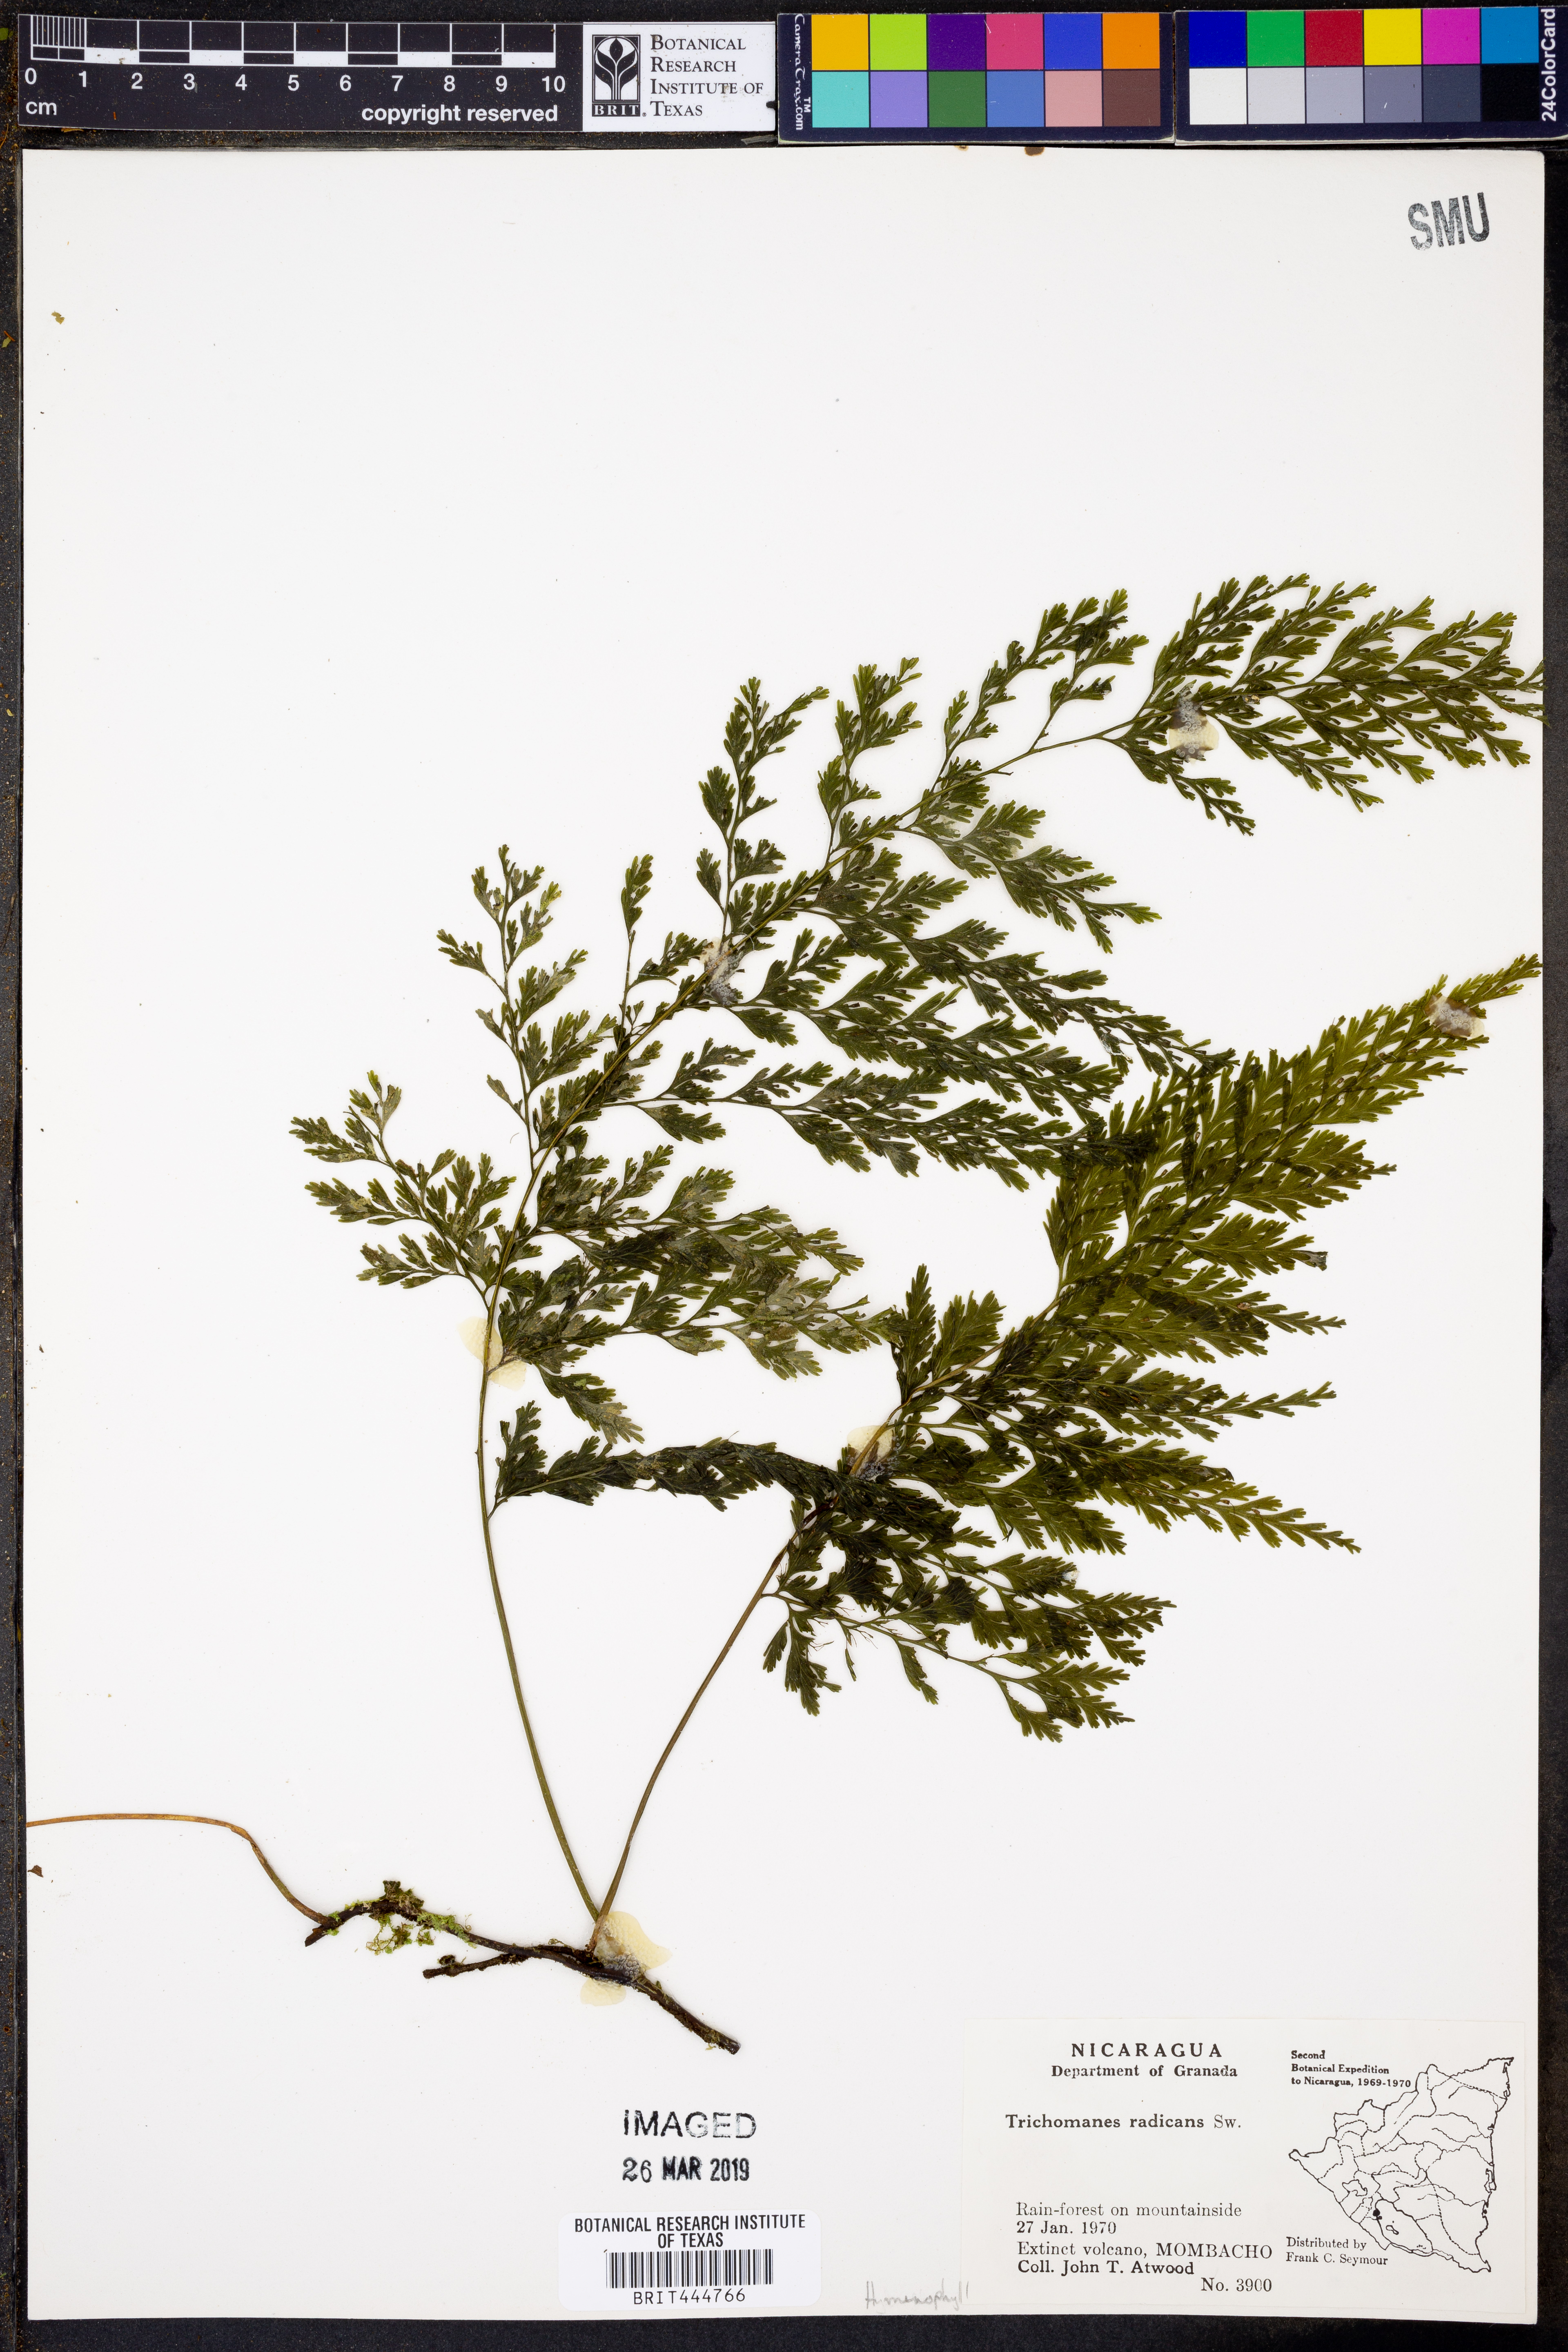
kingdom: Plantae
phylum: Tracheophyta
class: Polypodiopsida
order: Hymenophyllales
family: Hymenophyllaceae
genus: Vandenboschia
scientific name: Vandenboschia radicans
